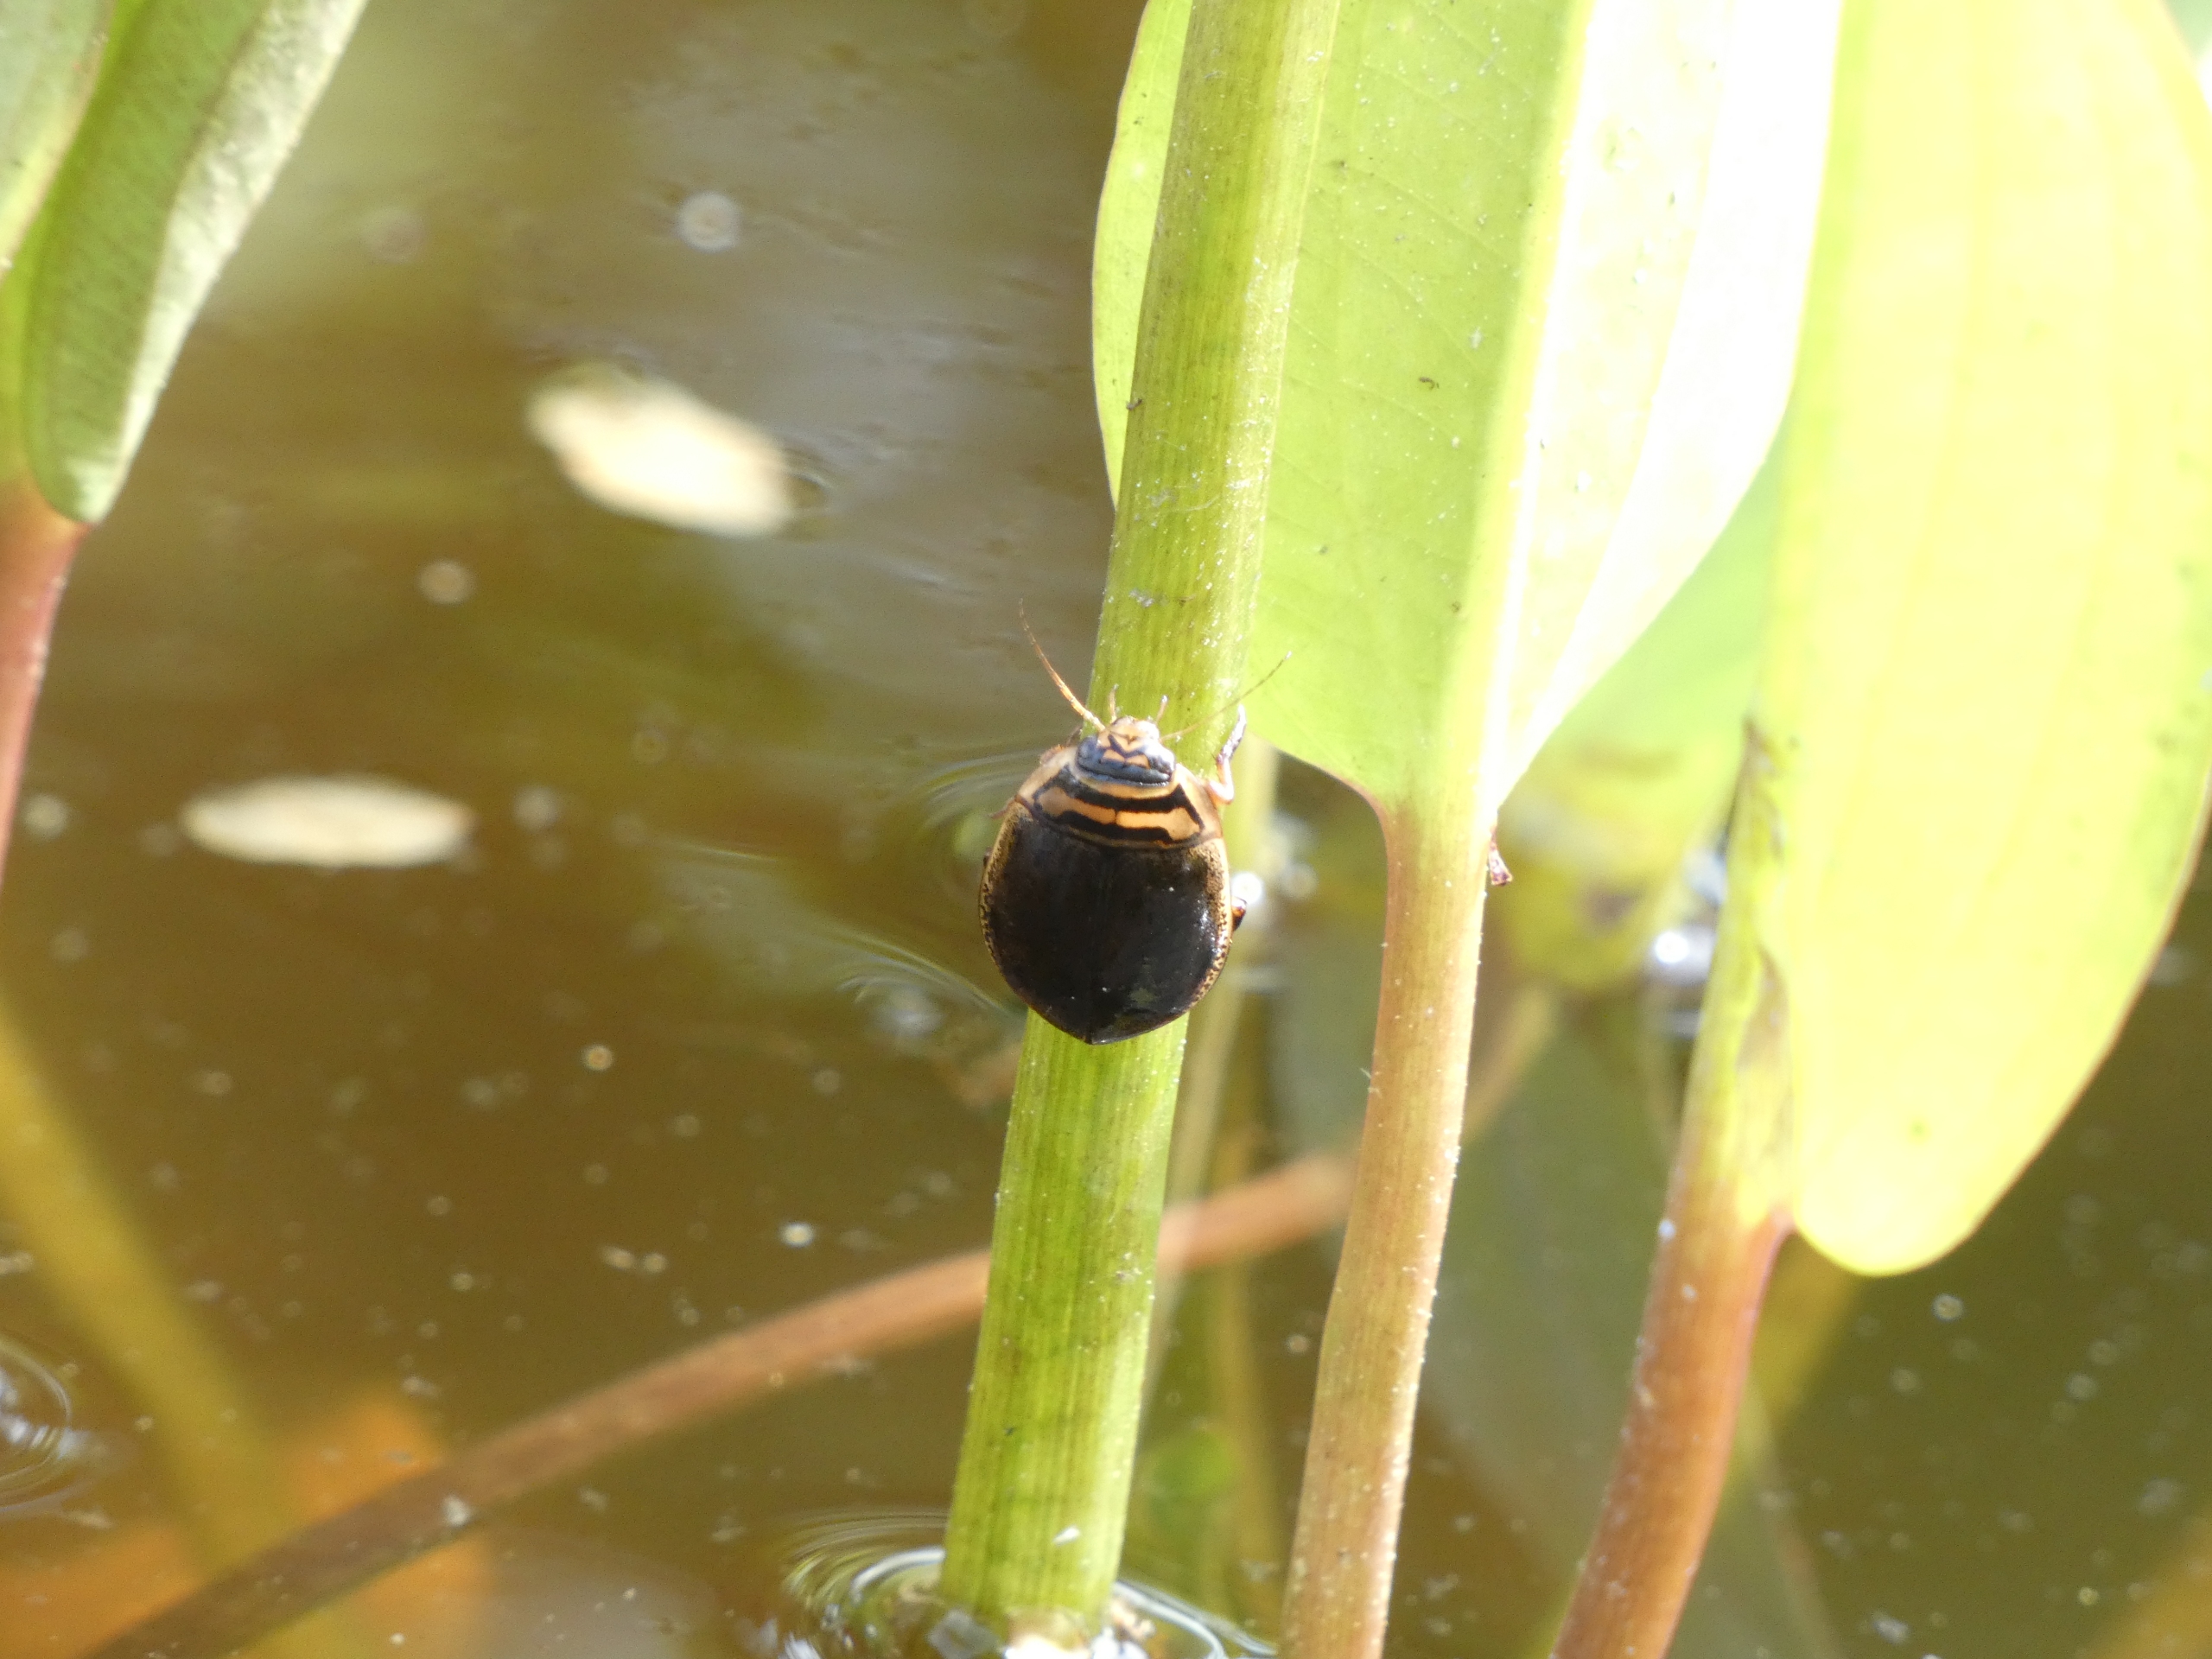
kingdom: Animalia
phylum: Arthropoda
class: Insecta
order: Coleoptera
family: Dytiscidae
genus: Acilius
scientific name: Acilius sulcatus
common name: Stribet skivevandkalv
